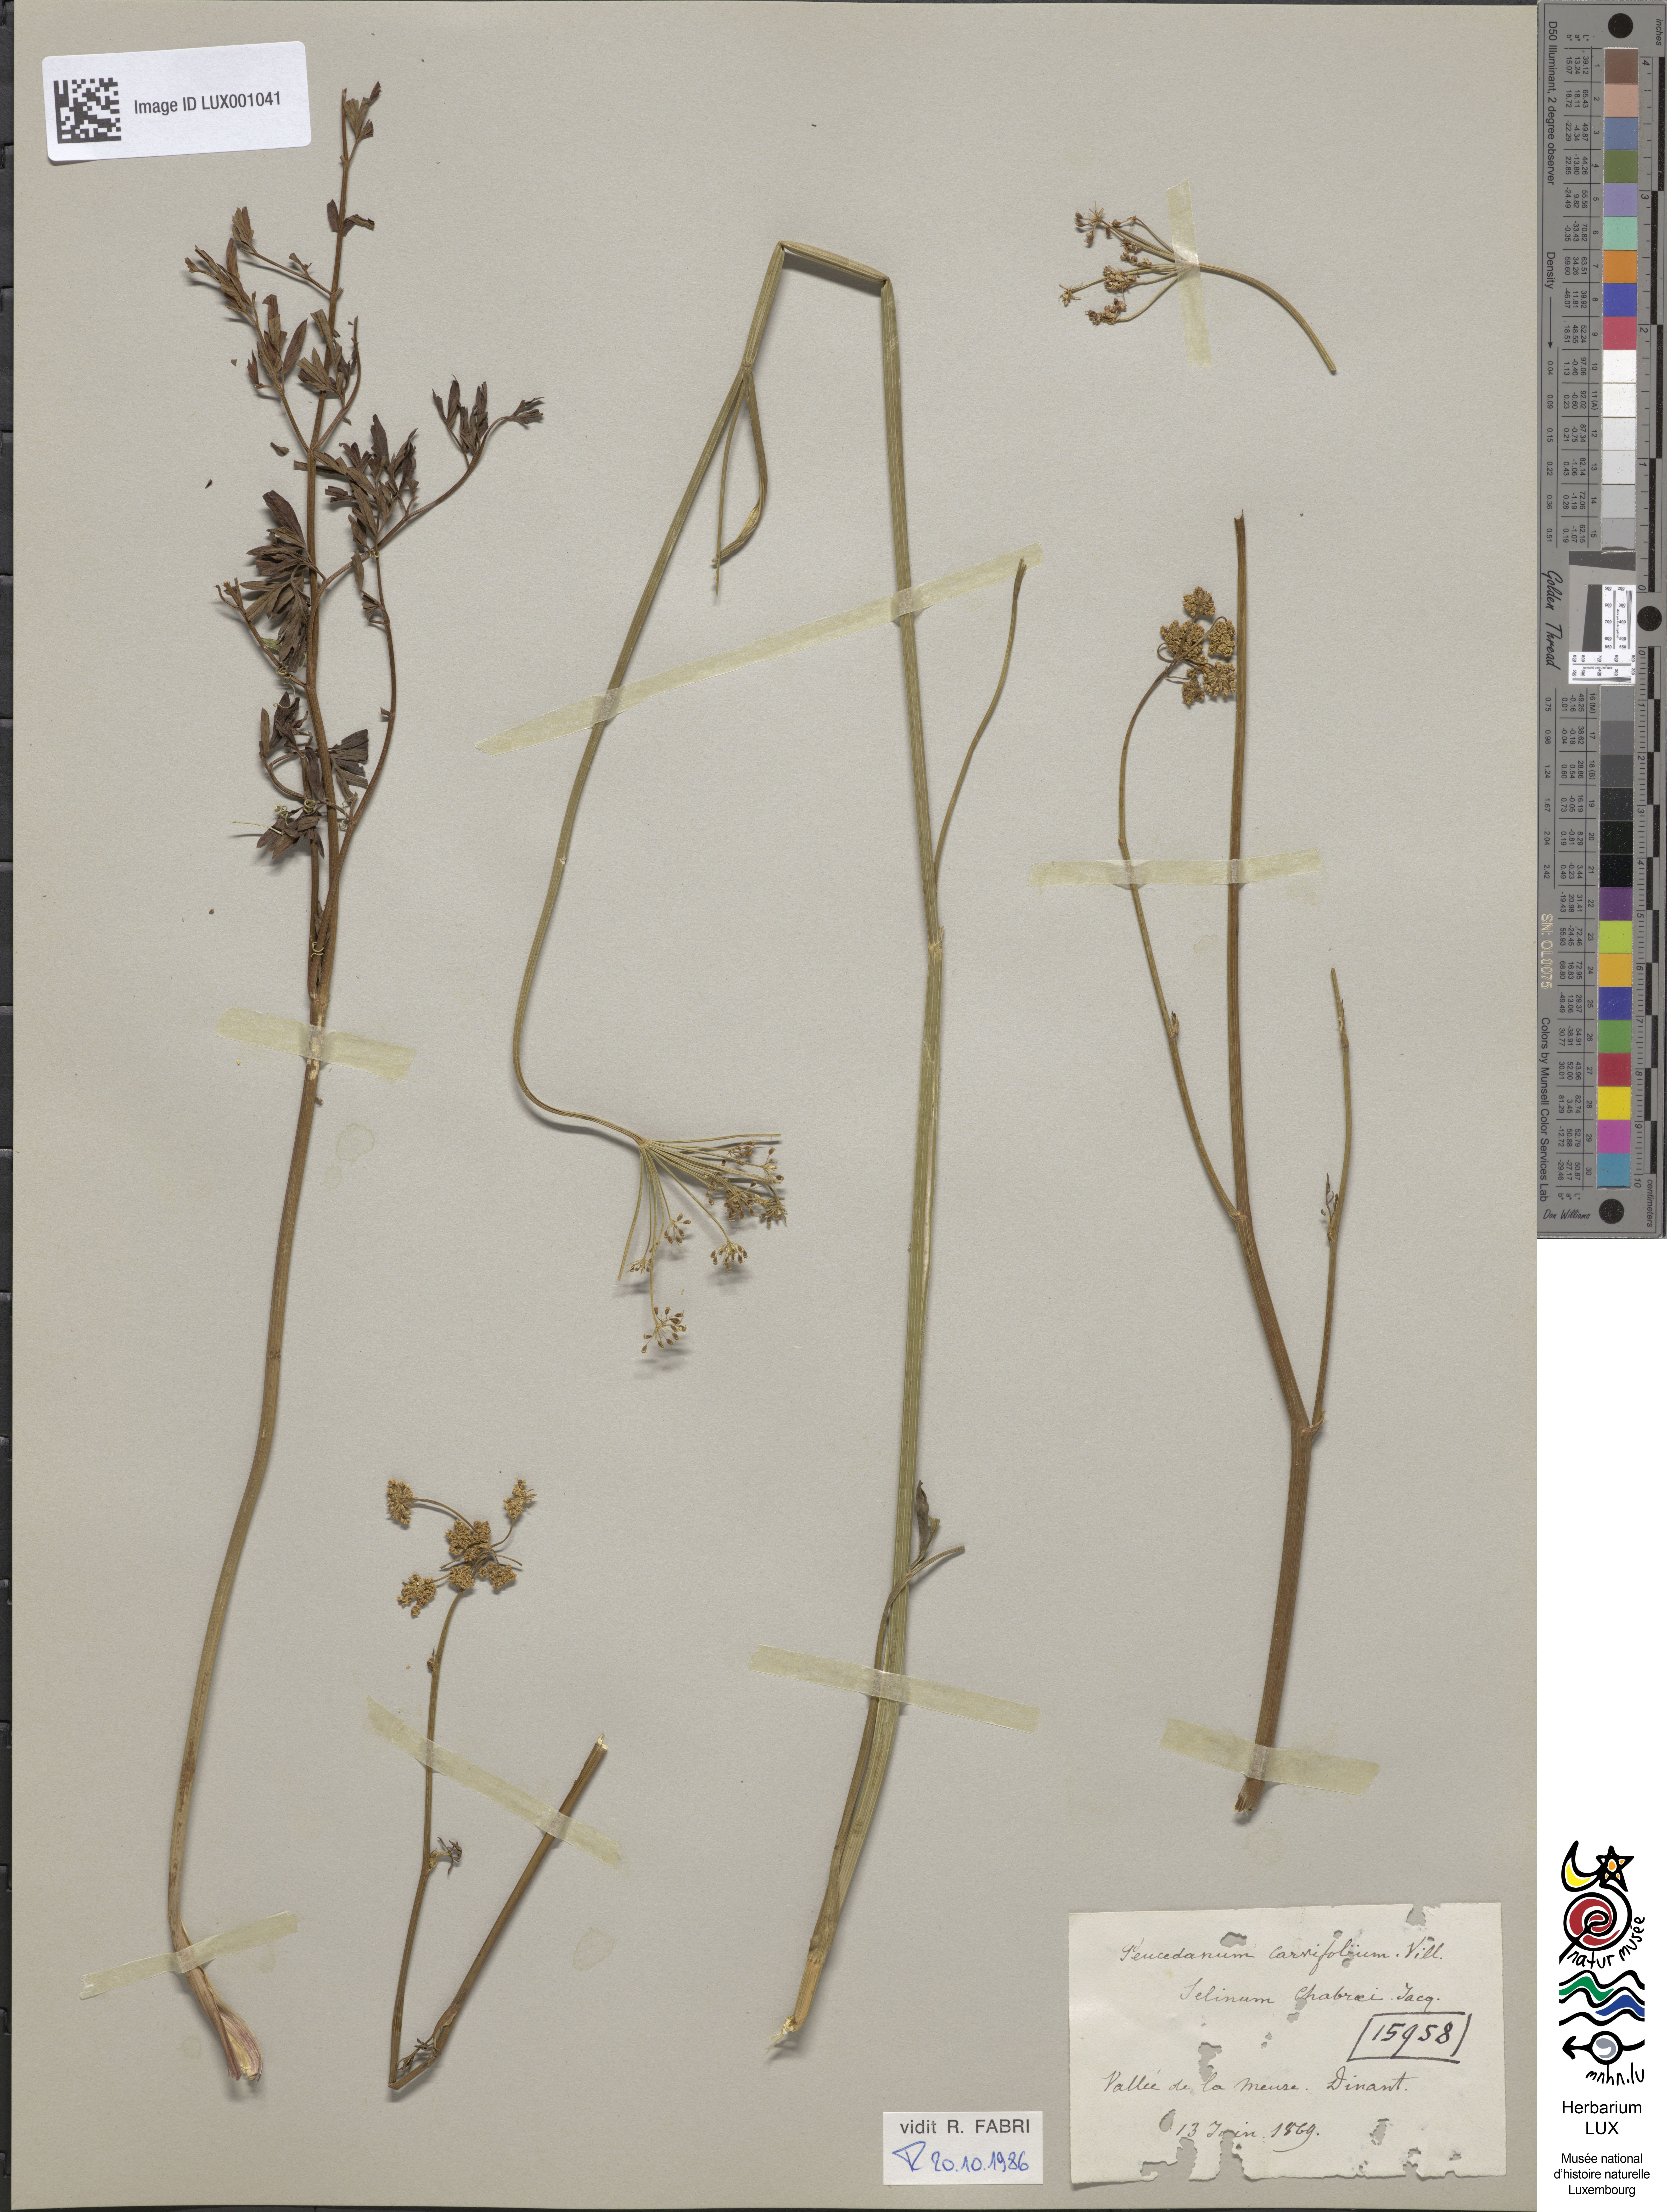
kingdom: Plantae
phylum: Tracheophyta
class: Magnoliopsida
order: Apiales
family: Apiaceae
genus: Dichoropetalum
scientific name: Dichoropetalum carvifolia
